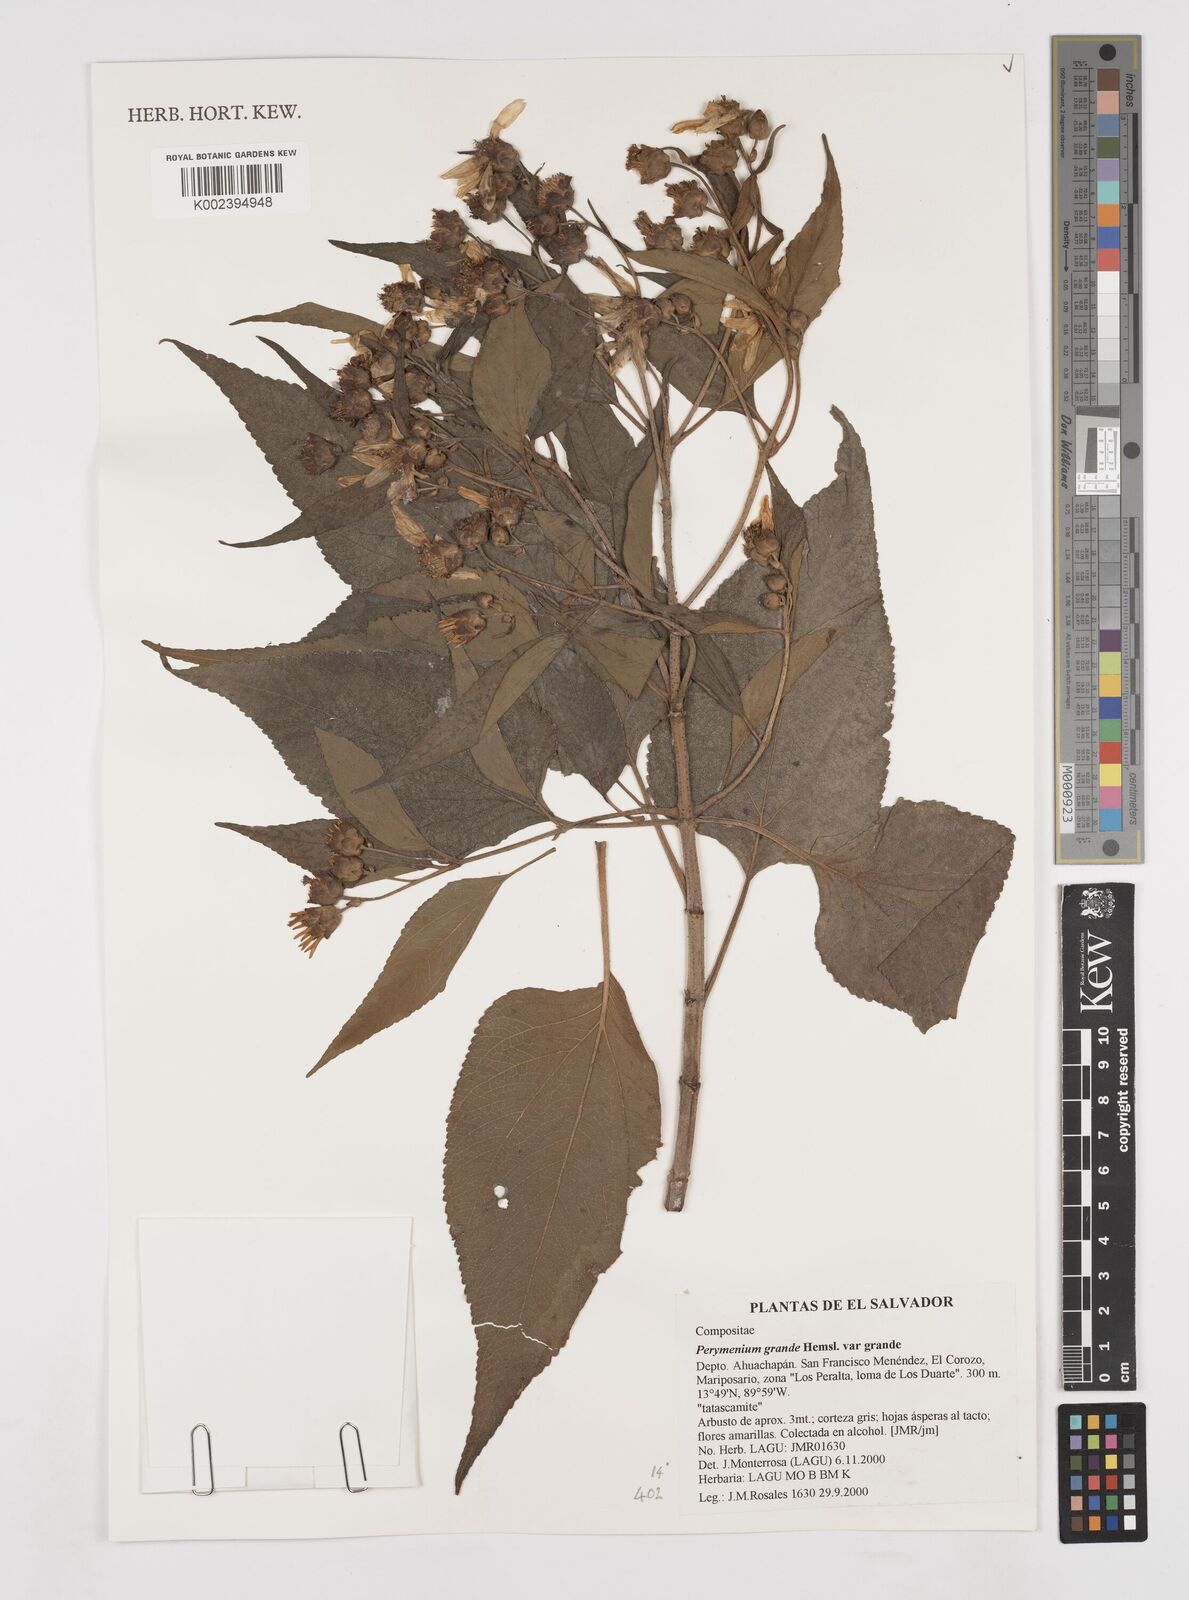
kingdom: Plantae
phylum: Tracheophyta
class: Magnoliopsida
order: Asterales
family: Asteraceae
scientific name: Asteraceae
